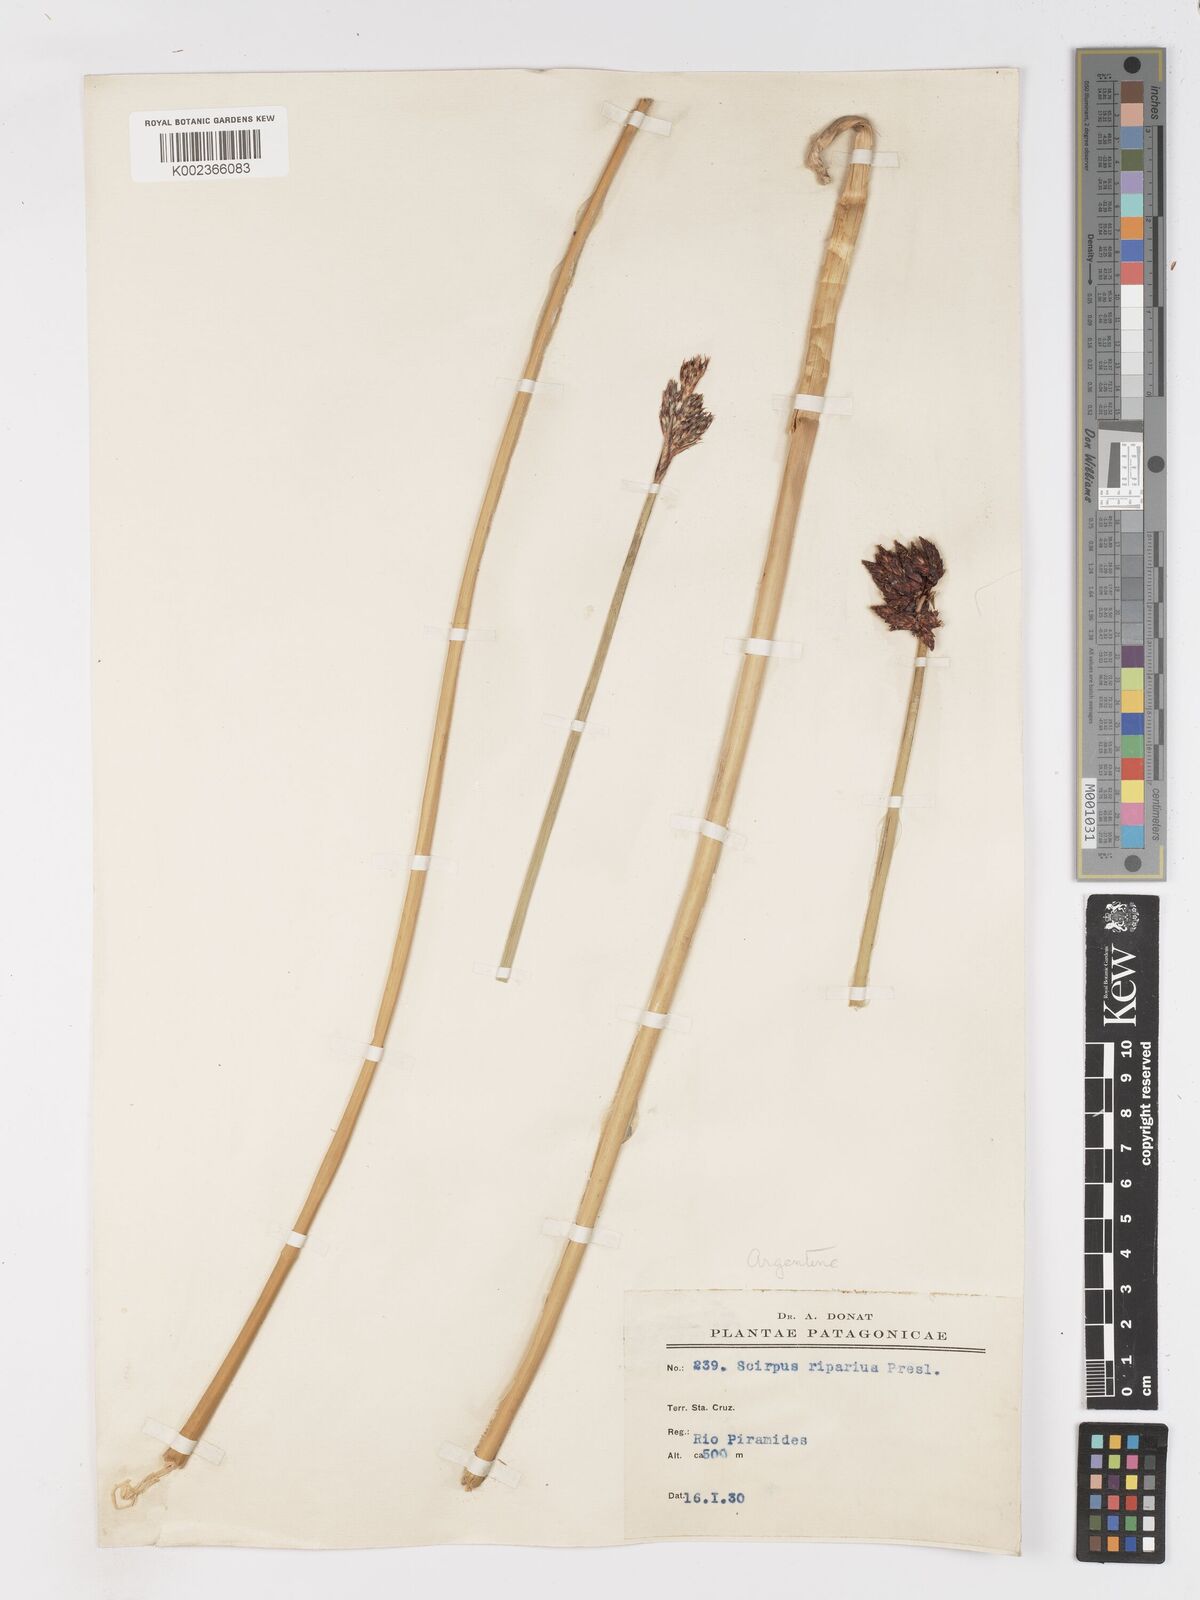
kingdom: Plantae
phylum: Tracheophyta
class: Liliopsida
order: Poales
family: Cyperaceae
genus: Schoenoplectus
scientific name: Schoenoplectus californicus
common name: California bulrush
